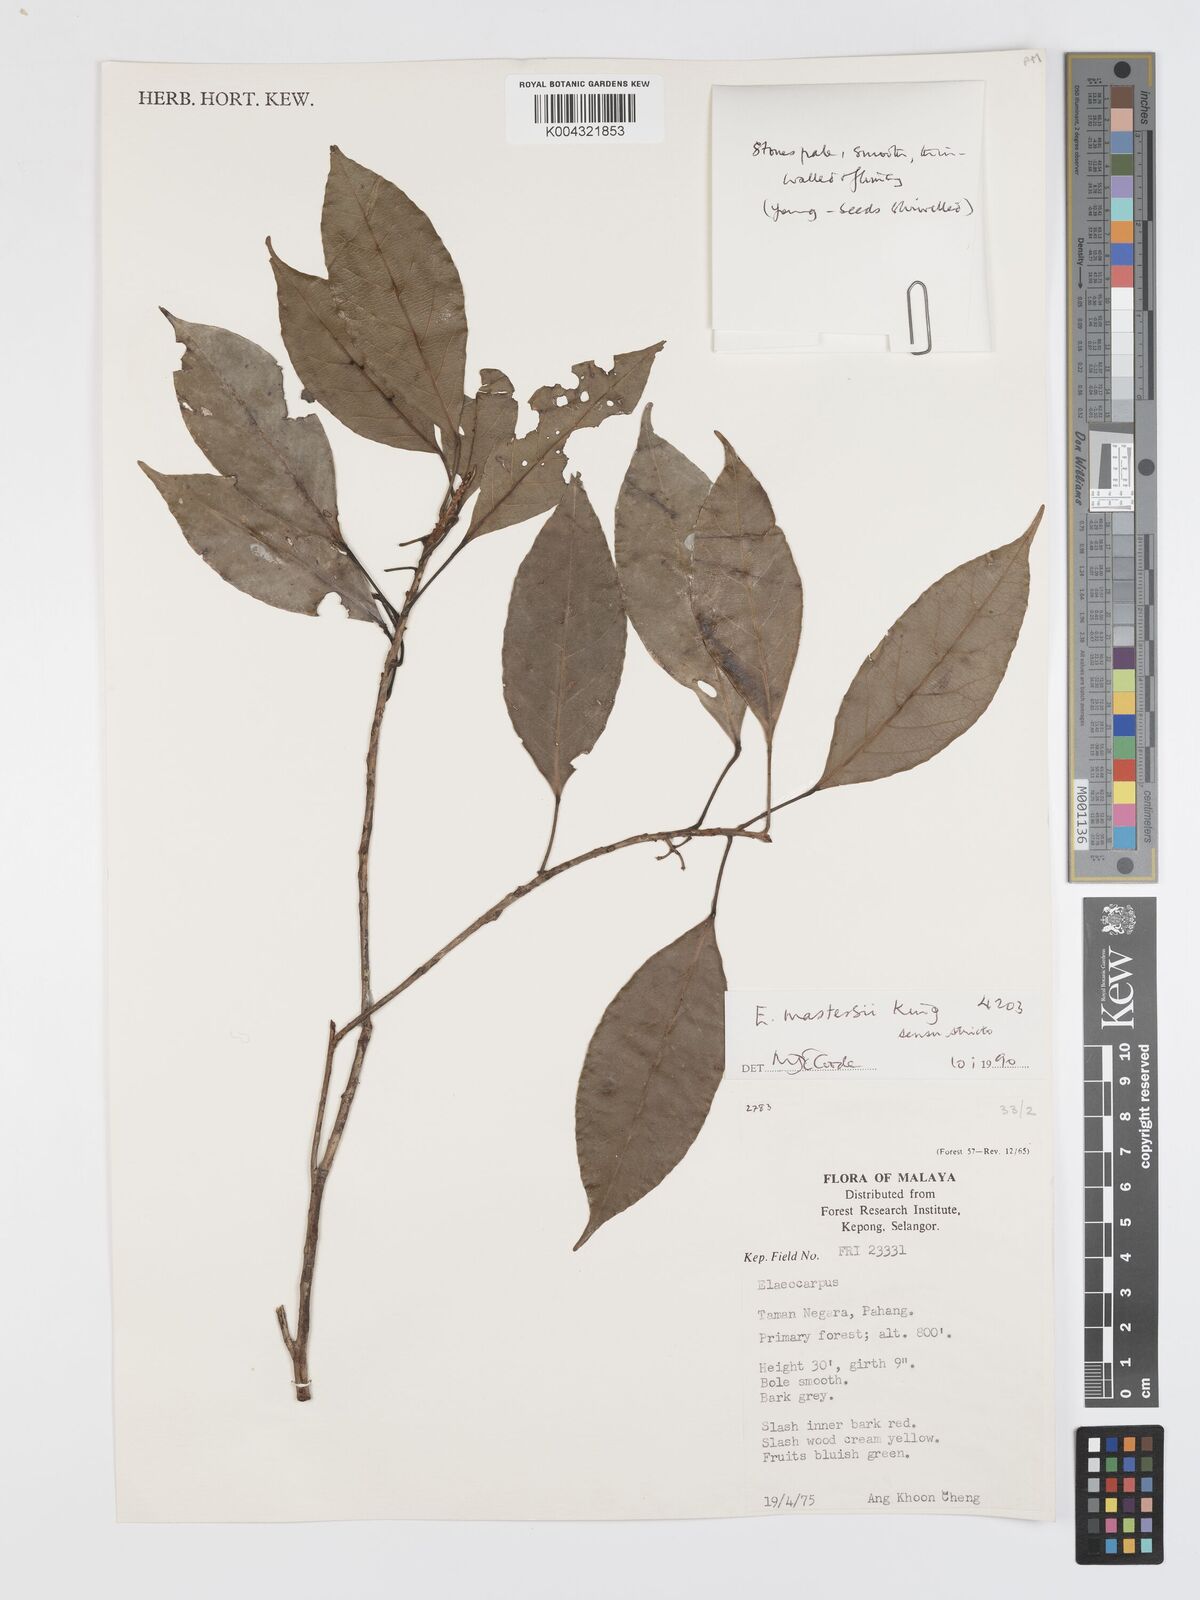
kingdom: Plantae
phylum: Tracheophyta
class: Magnoliopsida
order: Oxalidales
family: Elaeocarpaceae
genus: Elaeocarpus
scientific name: Elaeocarpus mastersii
